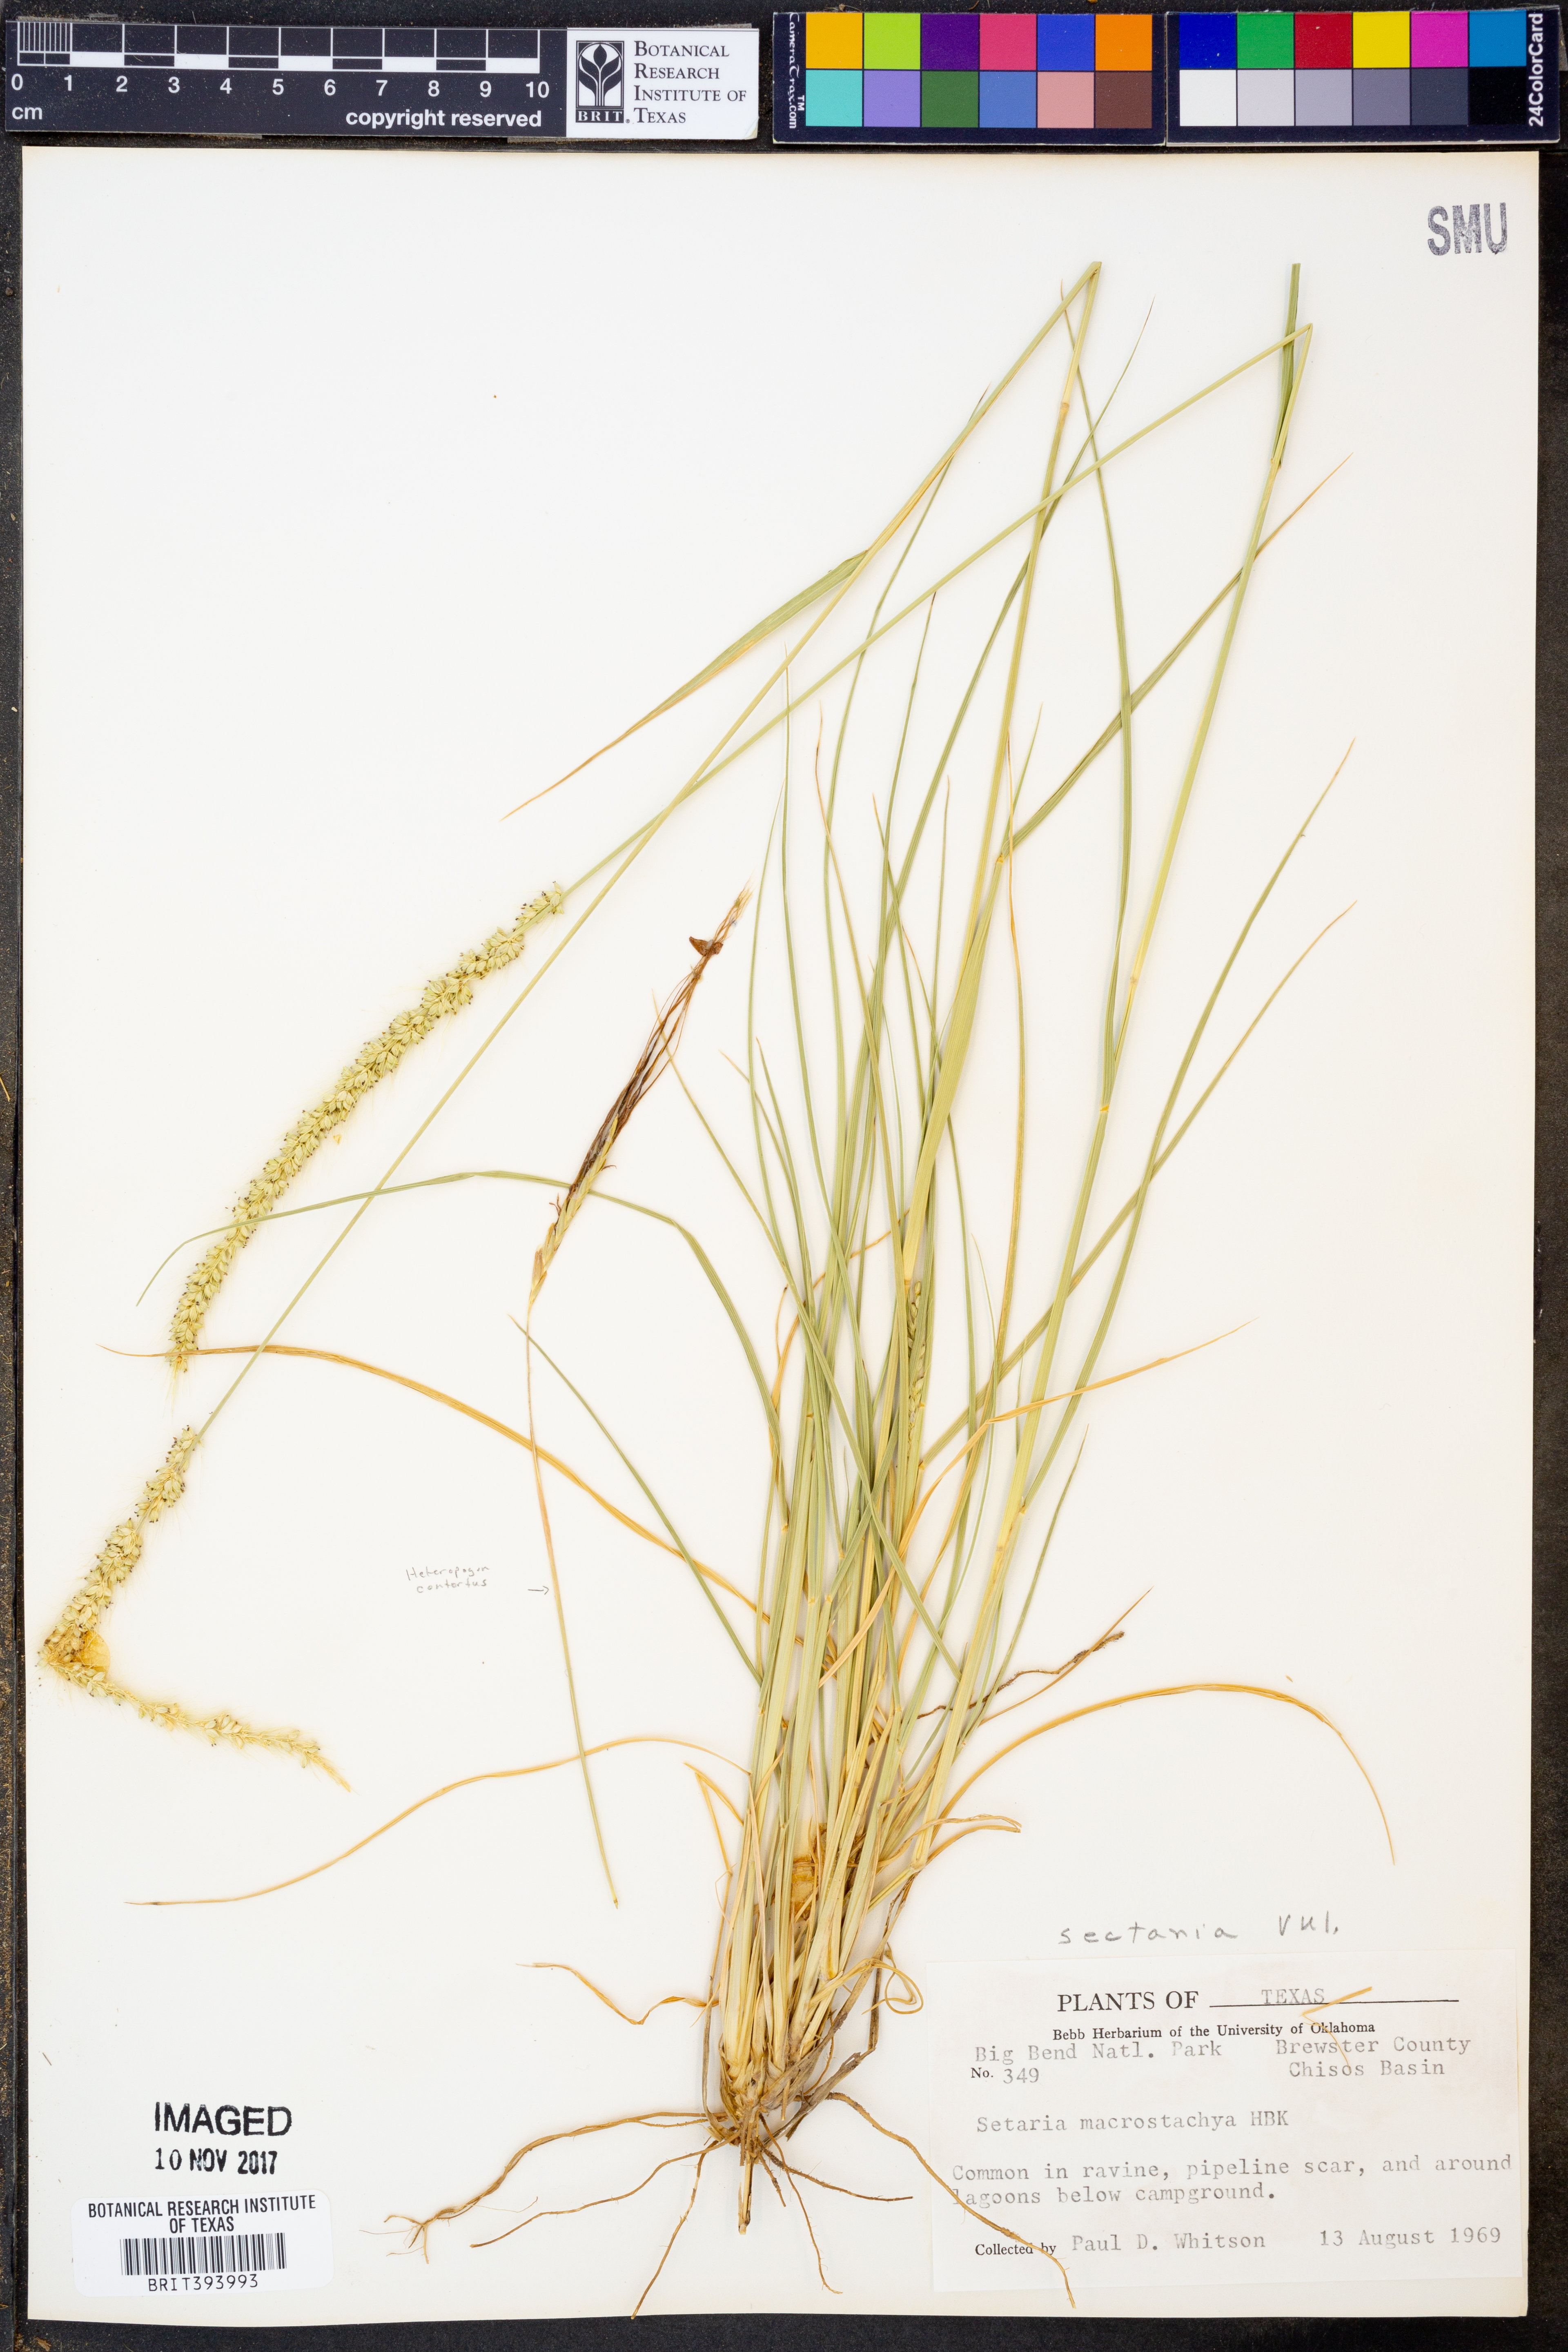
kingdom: Plantae
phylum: Tracheophyta
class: Liliopsida
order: Poales
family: Poaceae
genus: Setaria
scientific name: Setaria macrostachya
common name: Plains bristle grass
